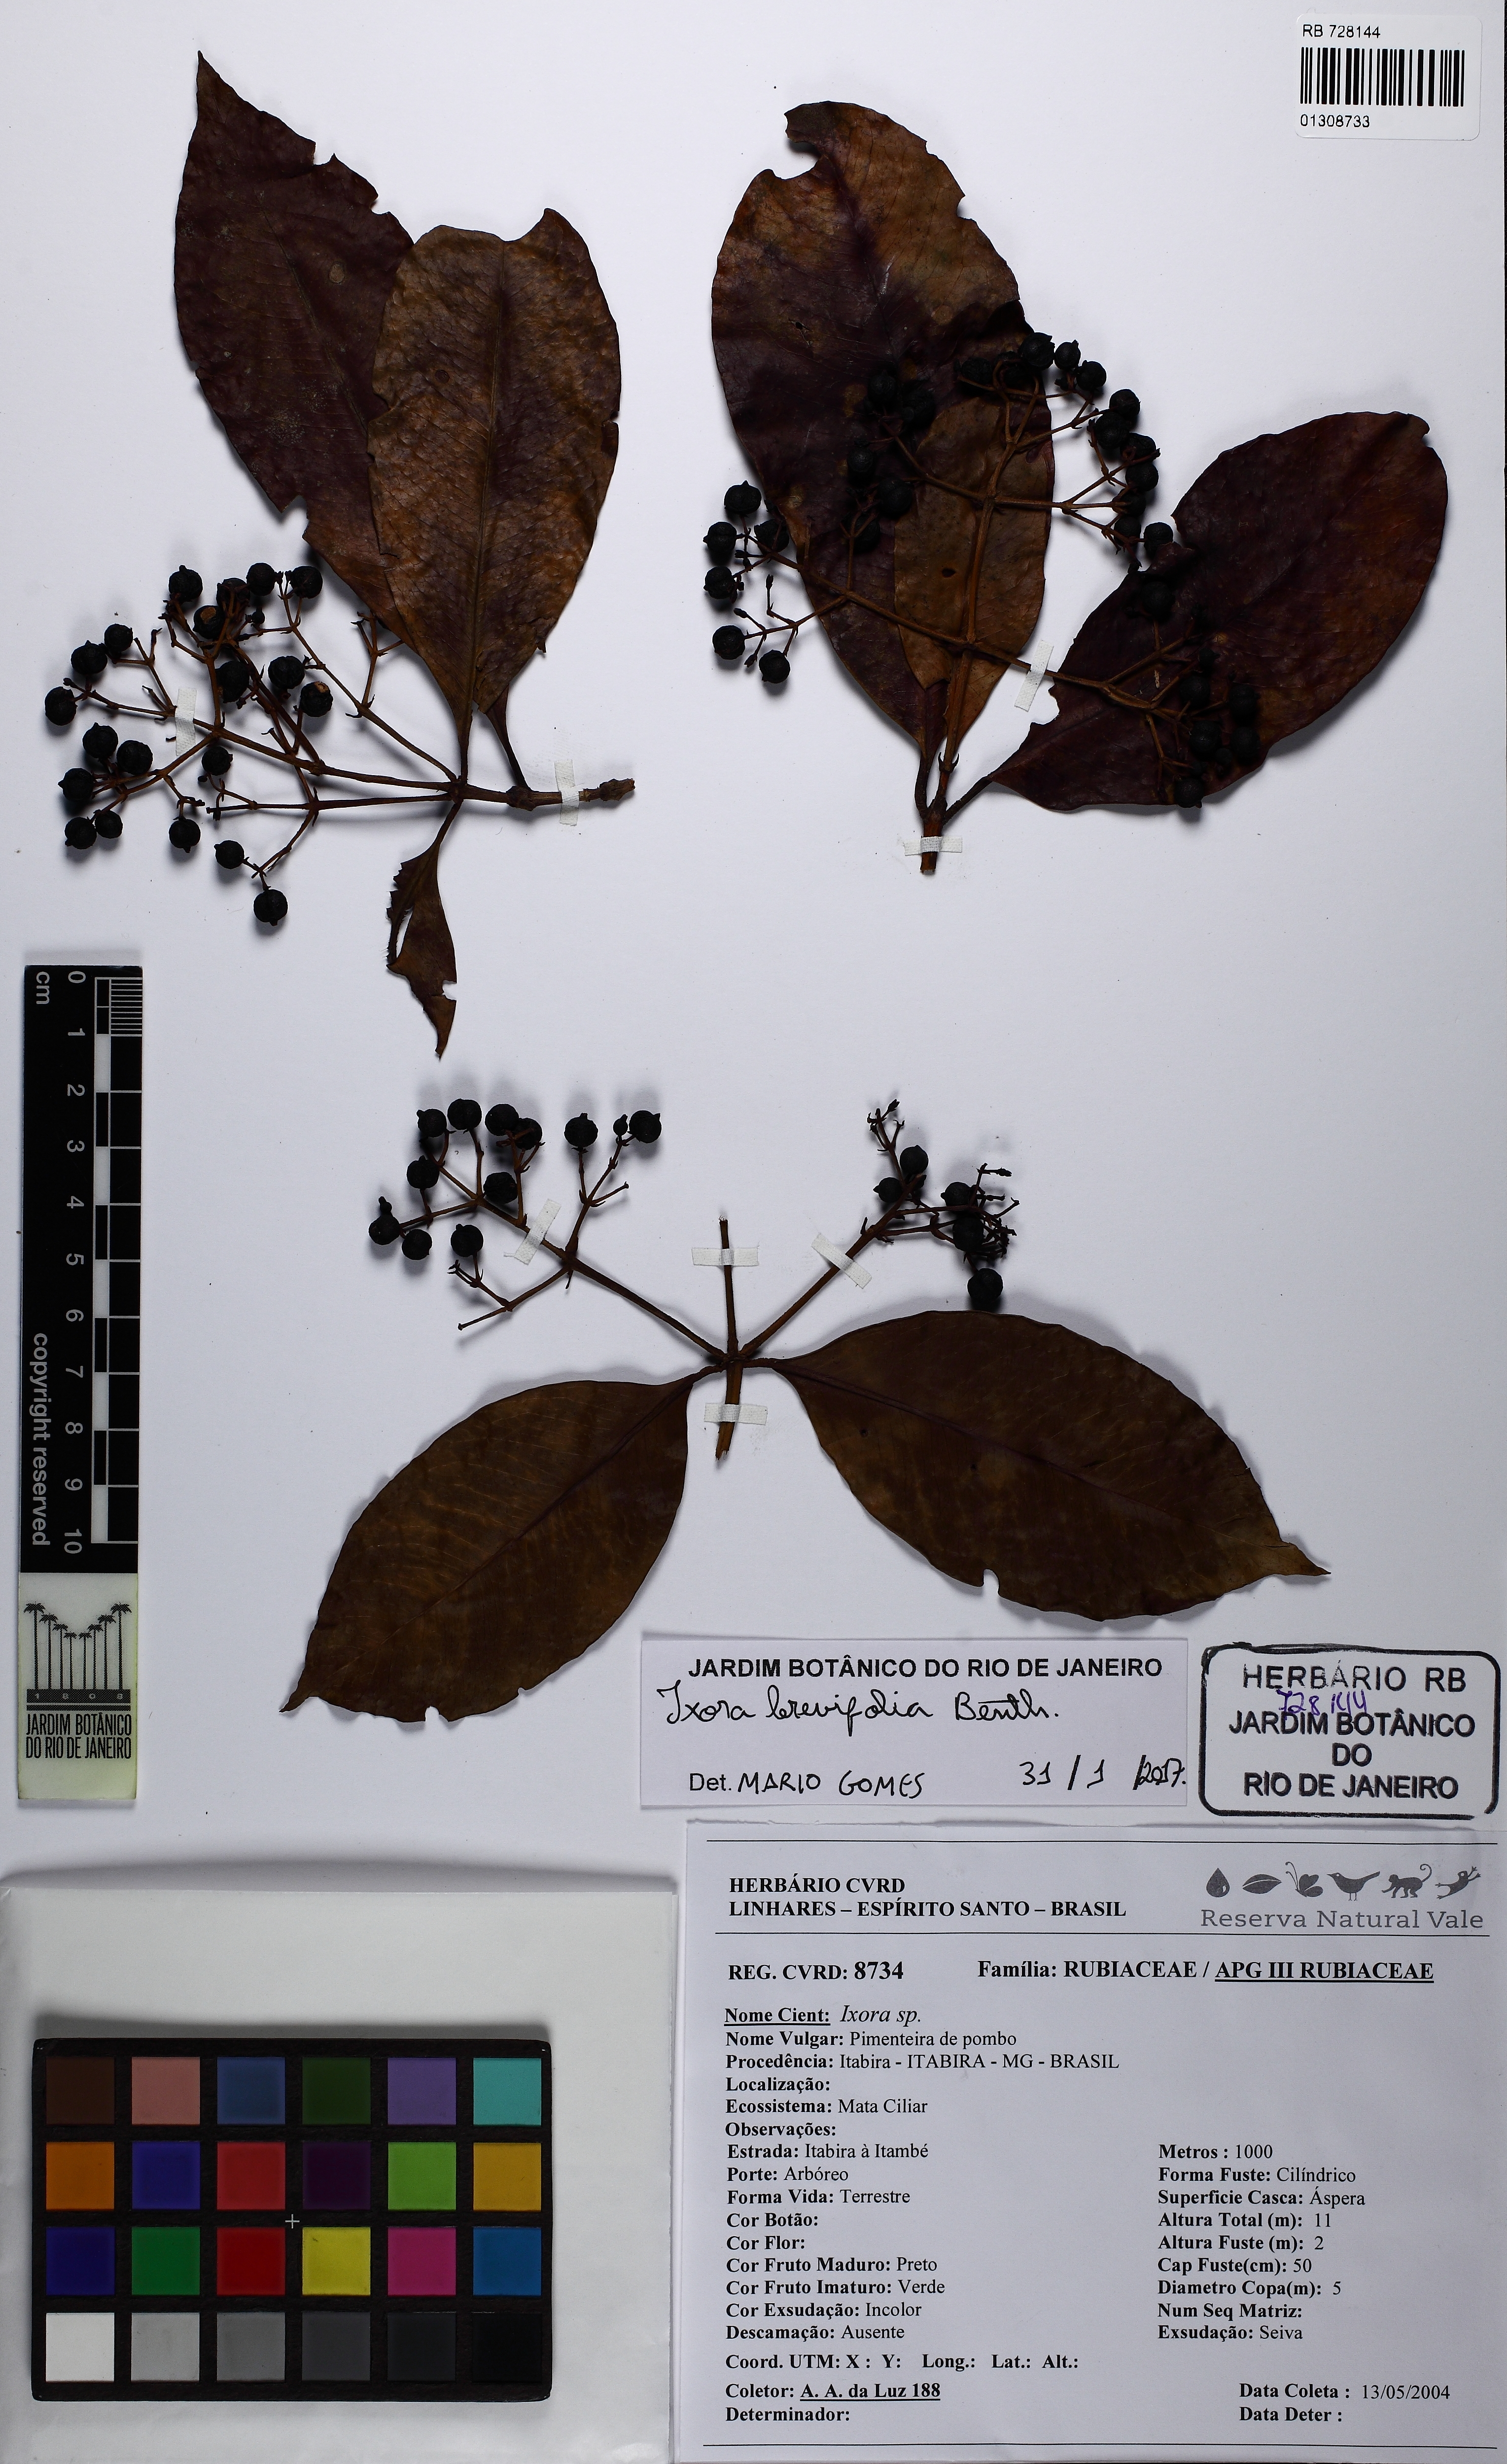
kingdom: Plantae
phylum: Tracheophyta
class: Magnoliopsida
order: Gentianales
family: Rubiaceae
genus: Ixora
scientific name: Ixora brevifolia
